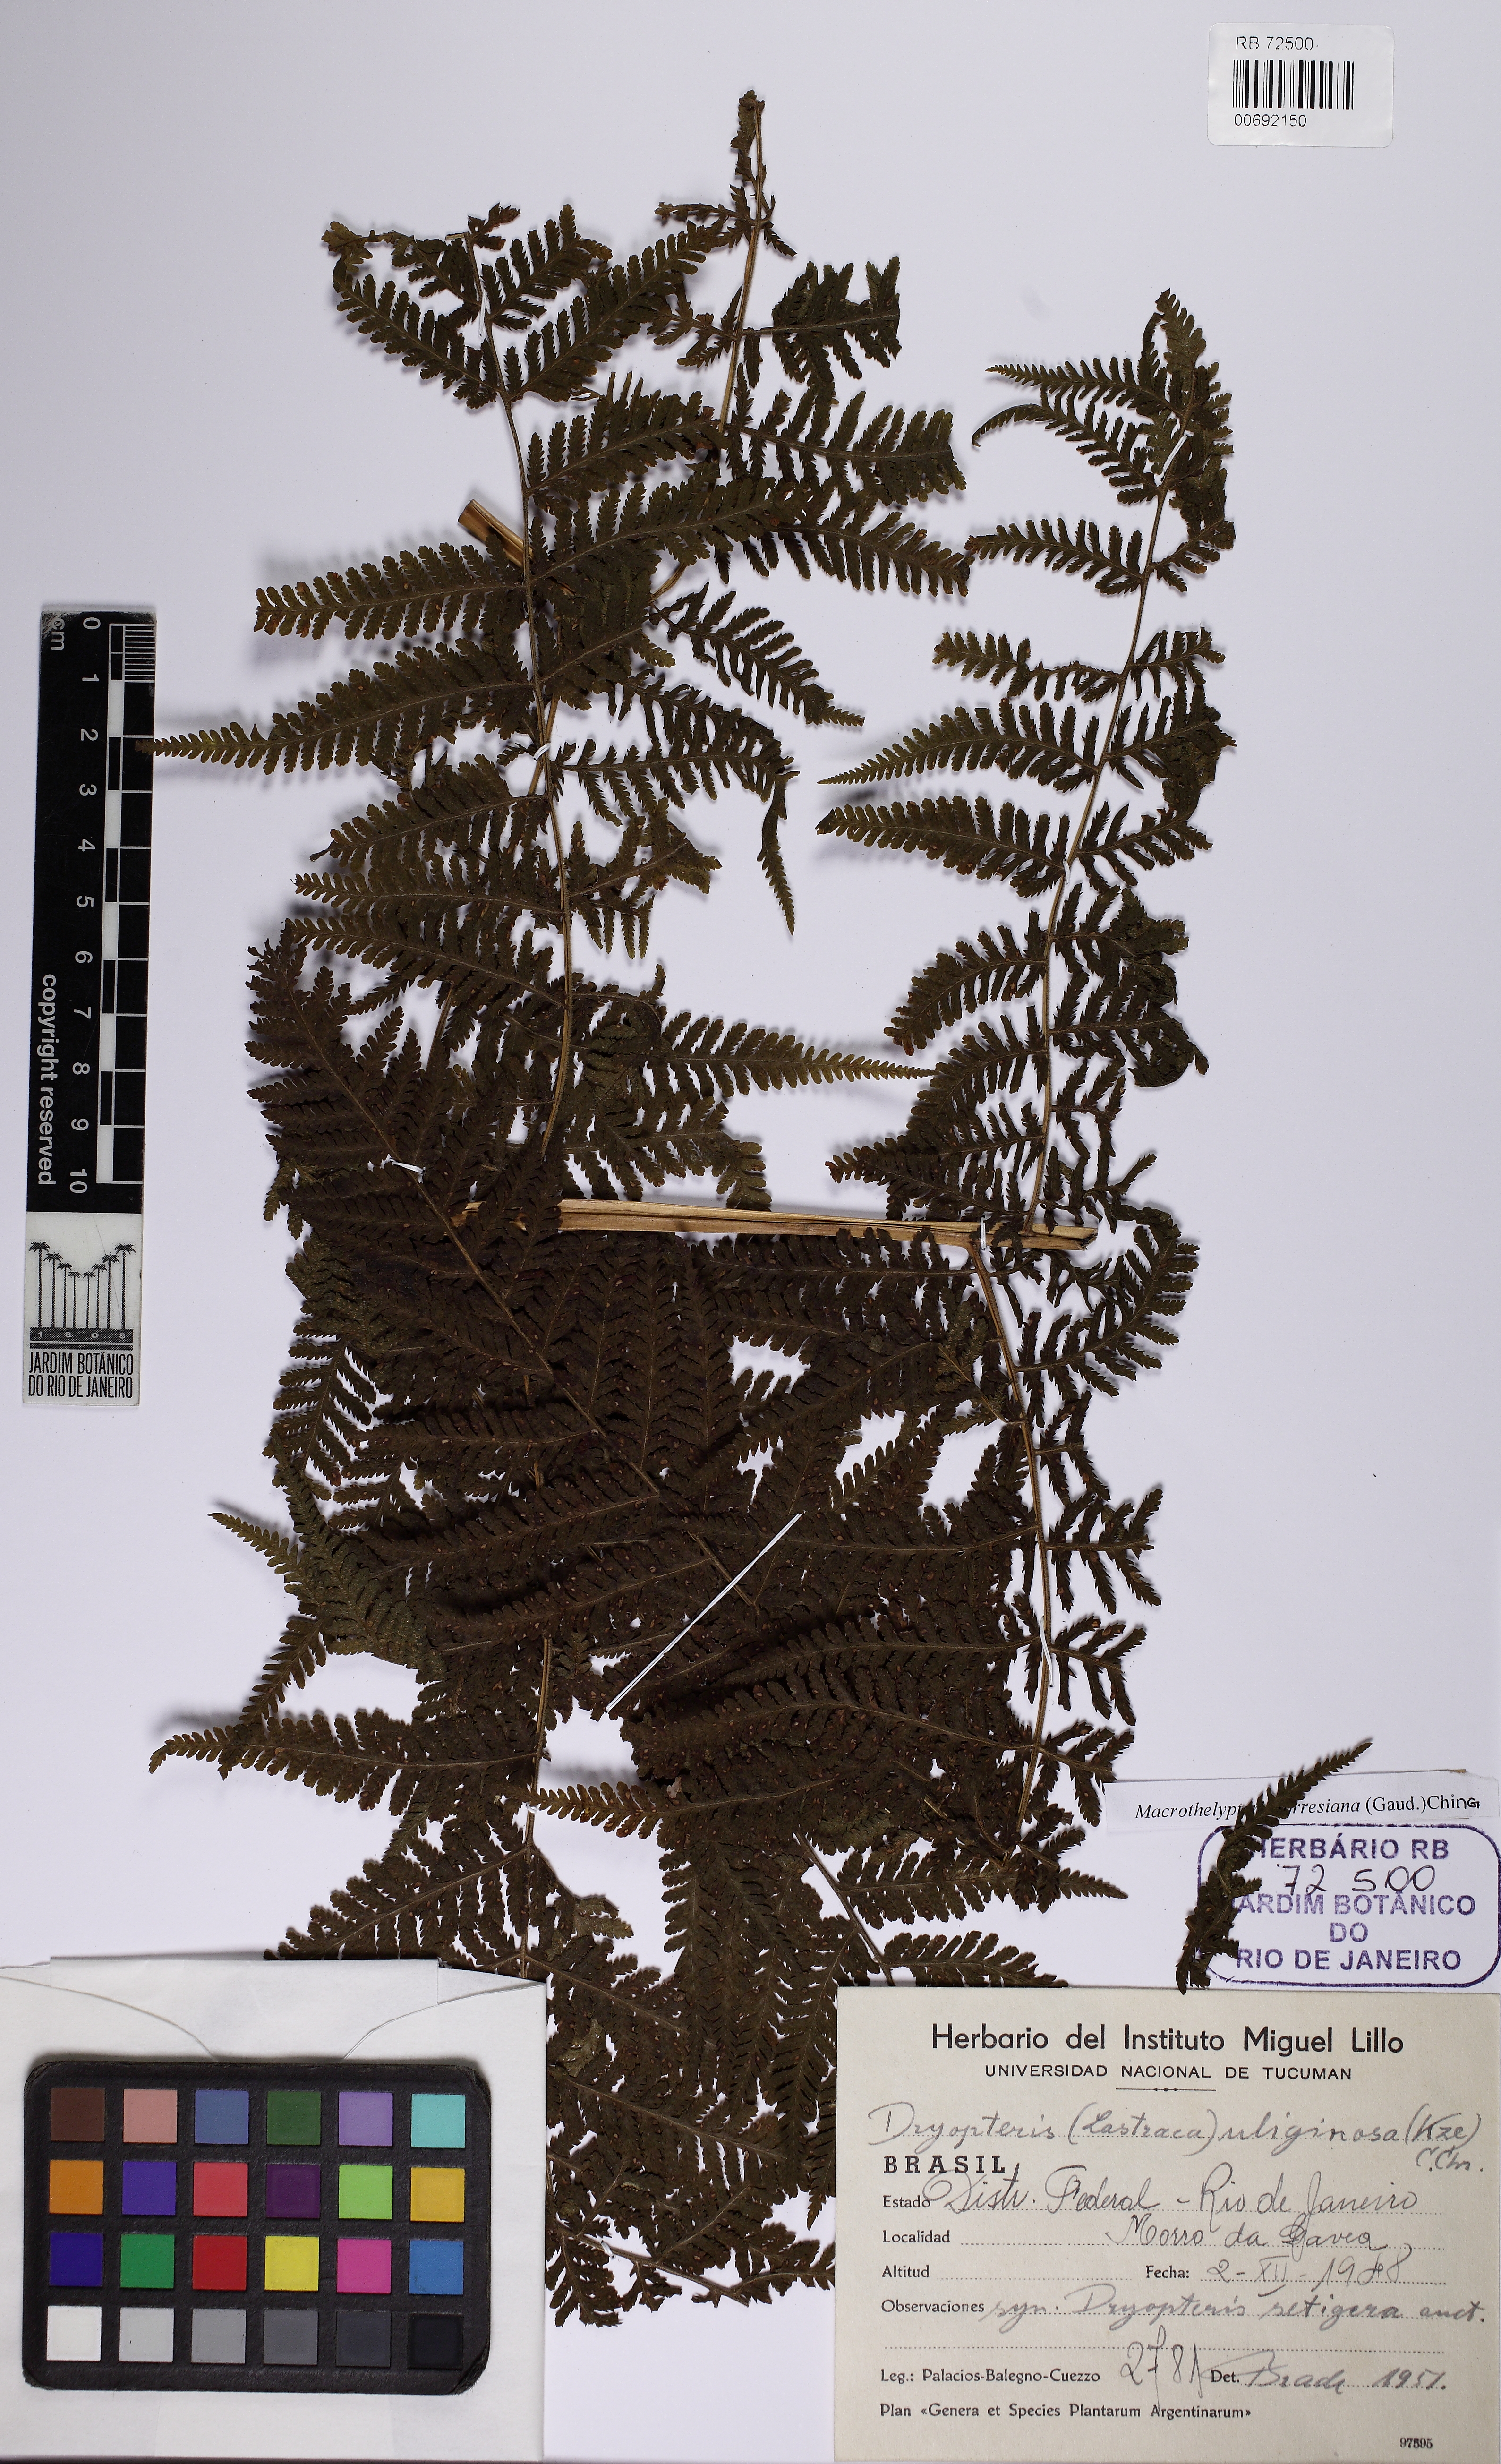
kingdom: Plantae
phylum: Tracheophyta
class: Polypodiopsida
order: Polypodiales
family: Thelypteridaceae
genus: Macrothelypteris
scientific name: Macrothelypteris torresiana
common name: Swordfern
